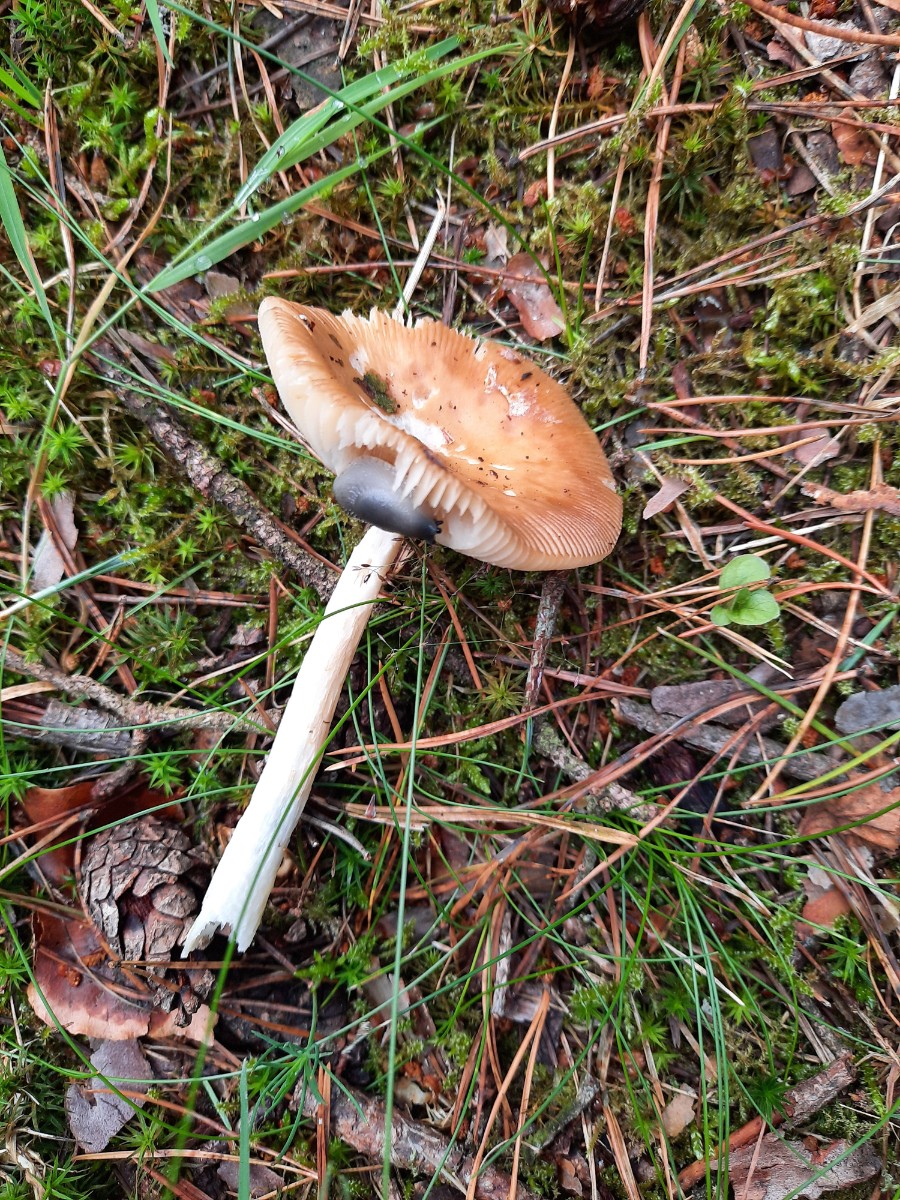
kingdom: Fungi
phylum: Basidiomycota
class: Agaricomycetes
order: Agaricales
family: Amanitaceae
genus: Amanita
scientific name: Amanita fulva
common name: brun kam-fluesvamp
